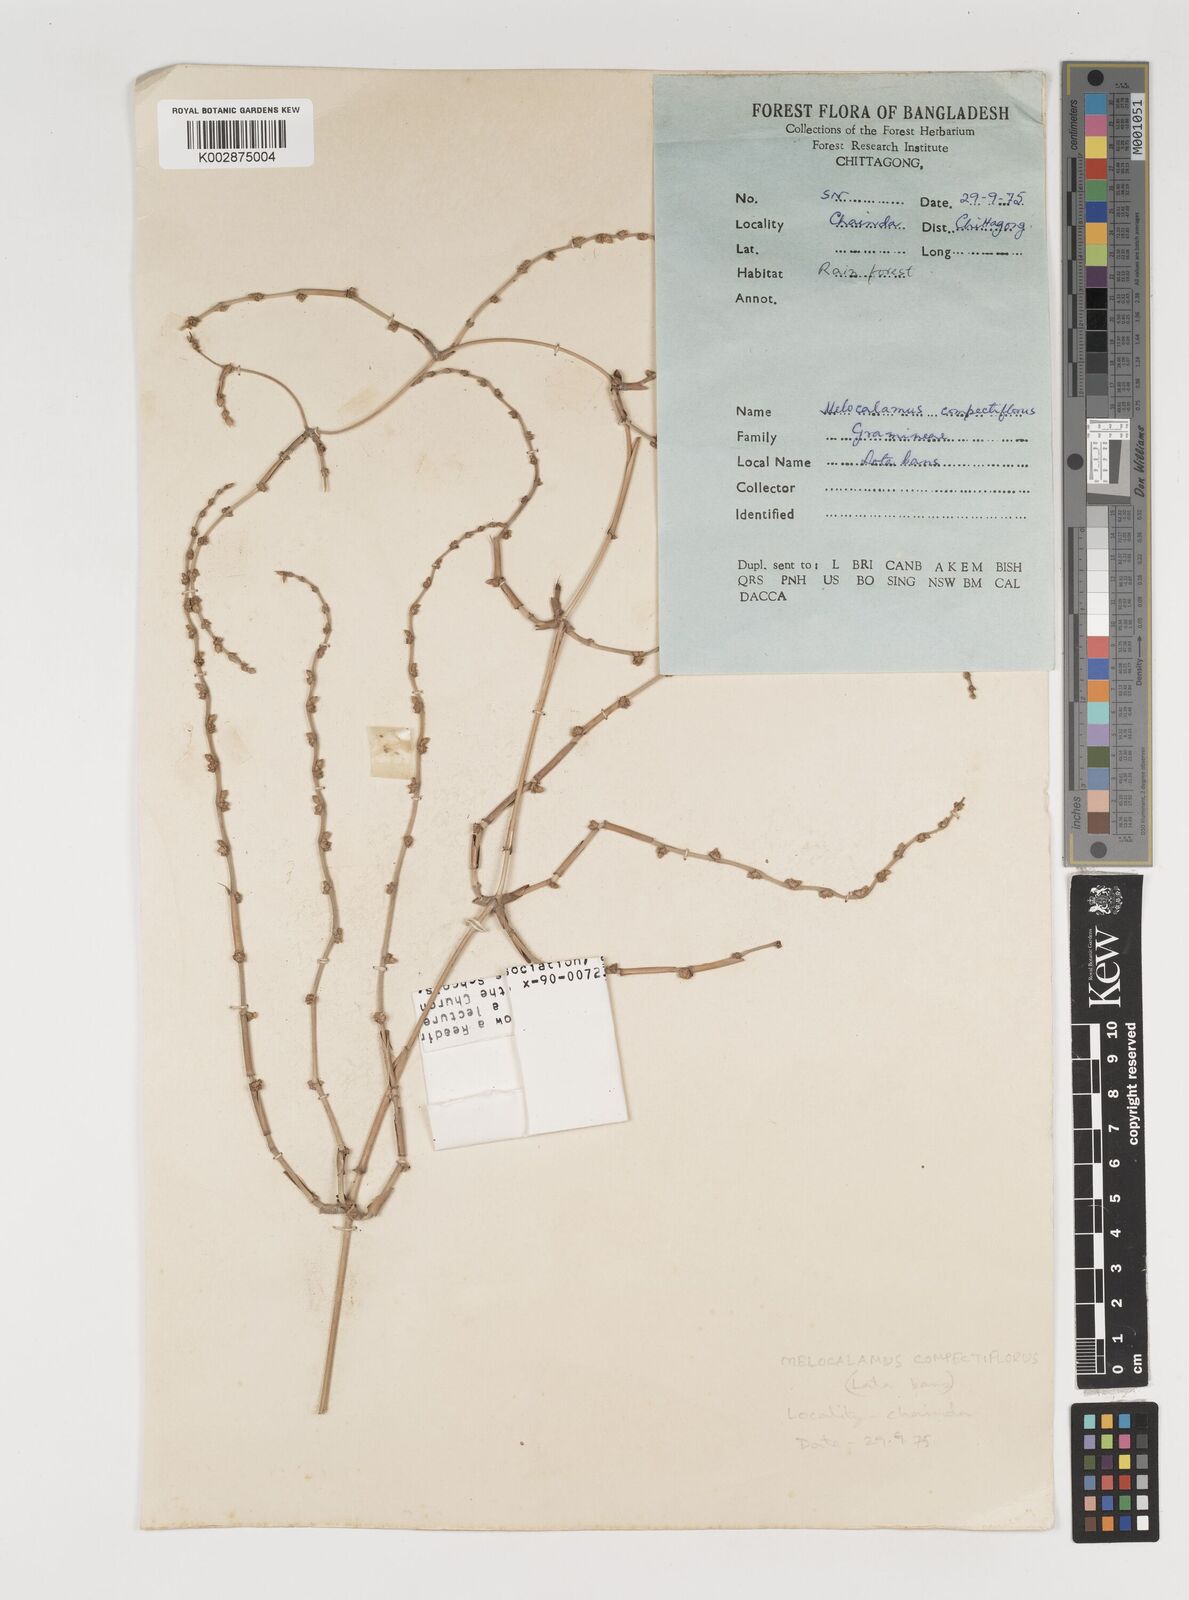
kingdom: Plantae
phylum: Tracheophyta
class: Liliopsida
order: Poales
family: Poaceae
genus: Melocalamus
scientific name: Melocalamus compactiflorus
